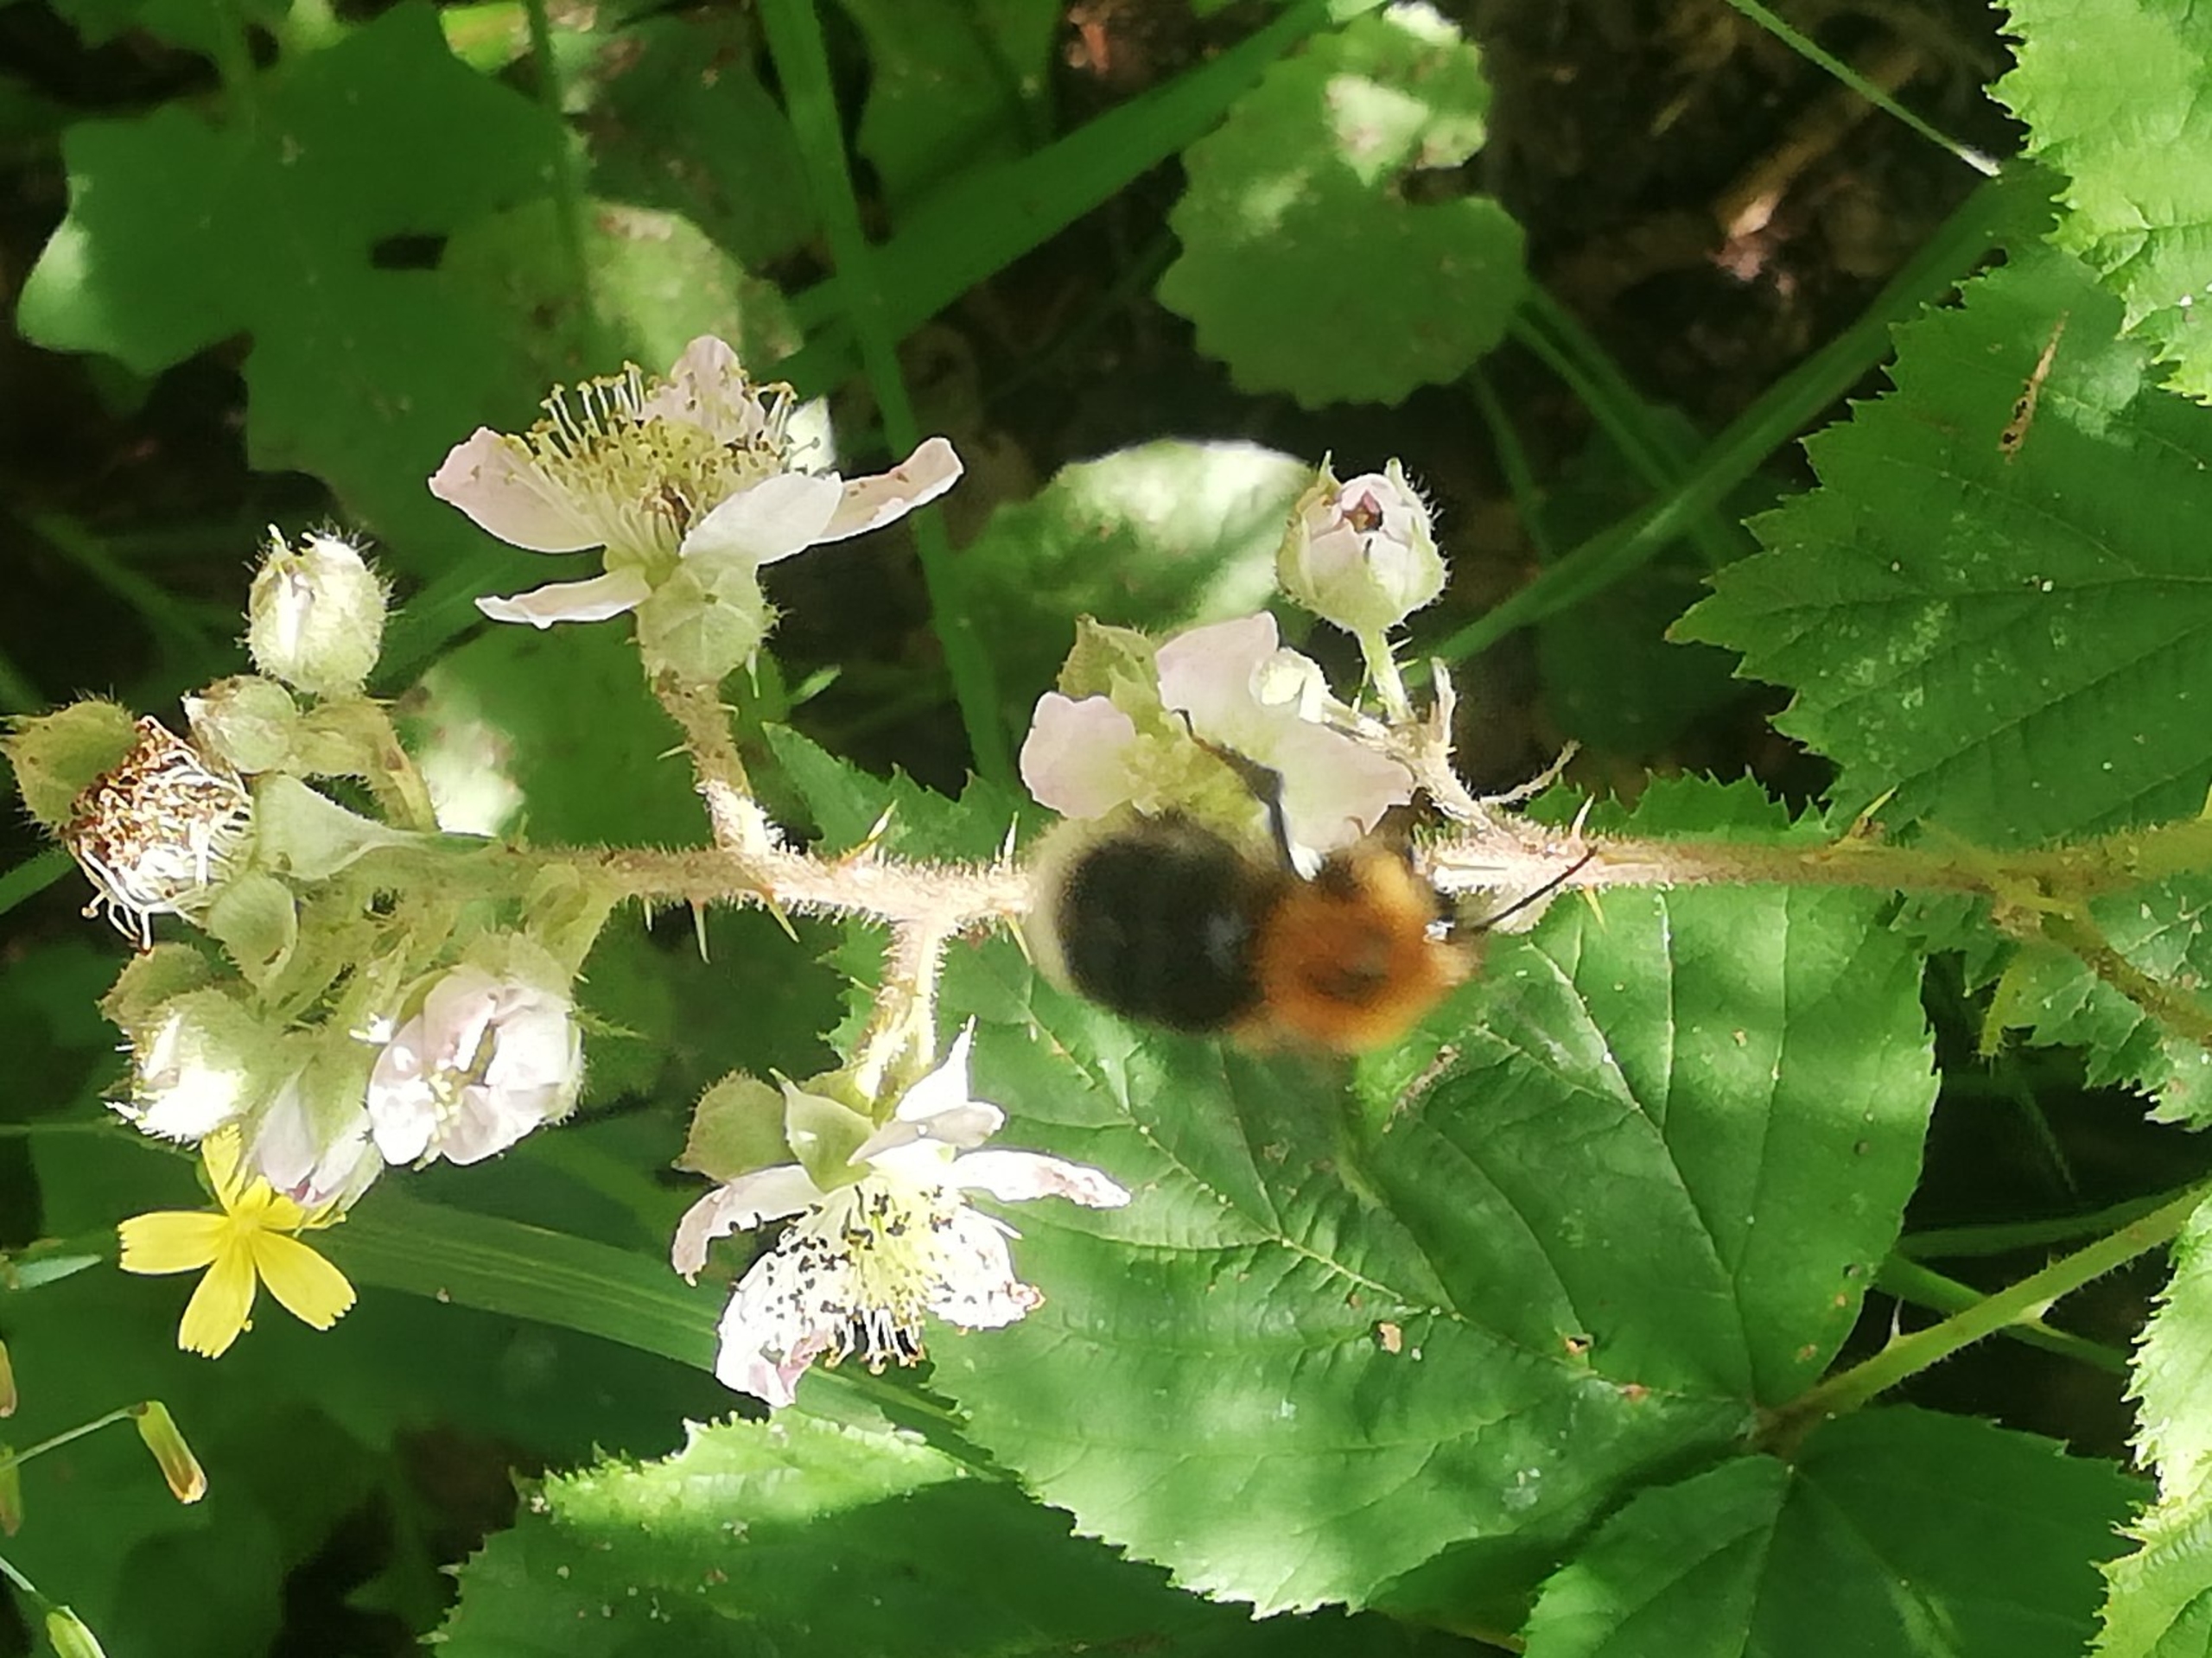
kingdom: Animalia
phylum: Arthropoda
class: Insecta
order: Hymenoptera
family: Apidae
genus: Bombus
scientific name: Bombus hypnorum
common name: Hushumle
